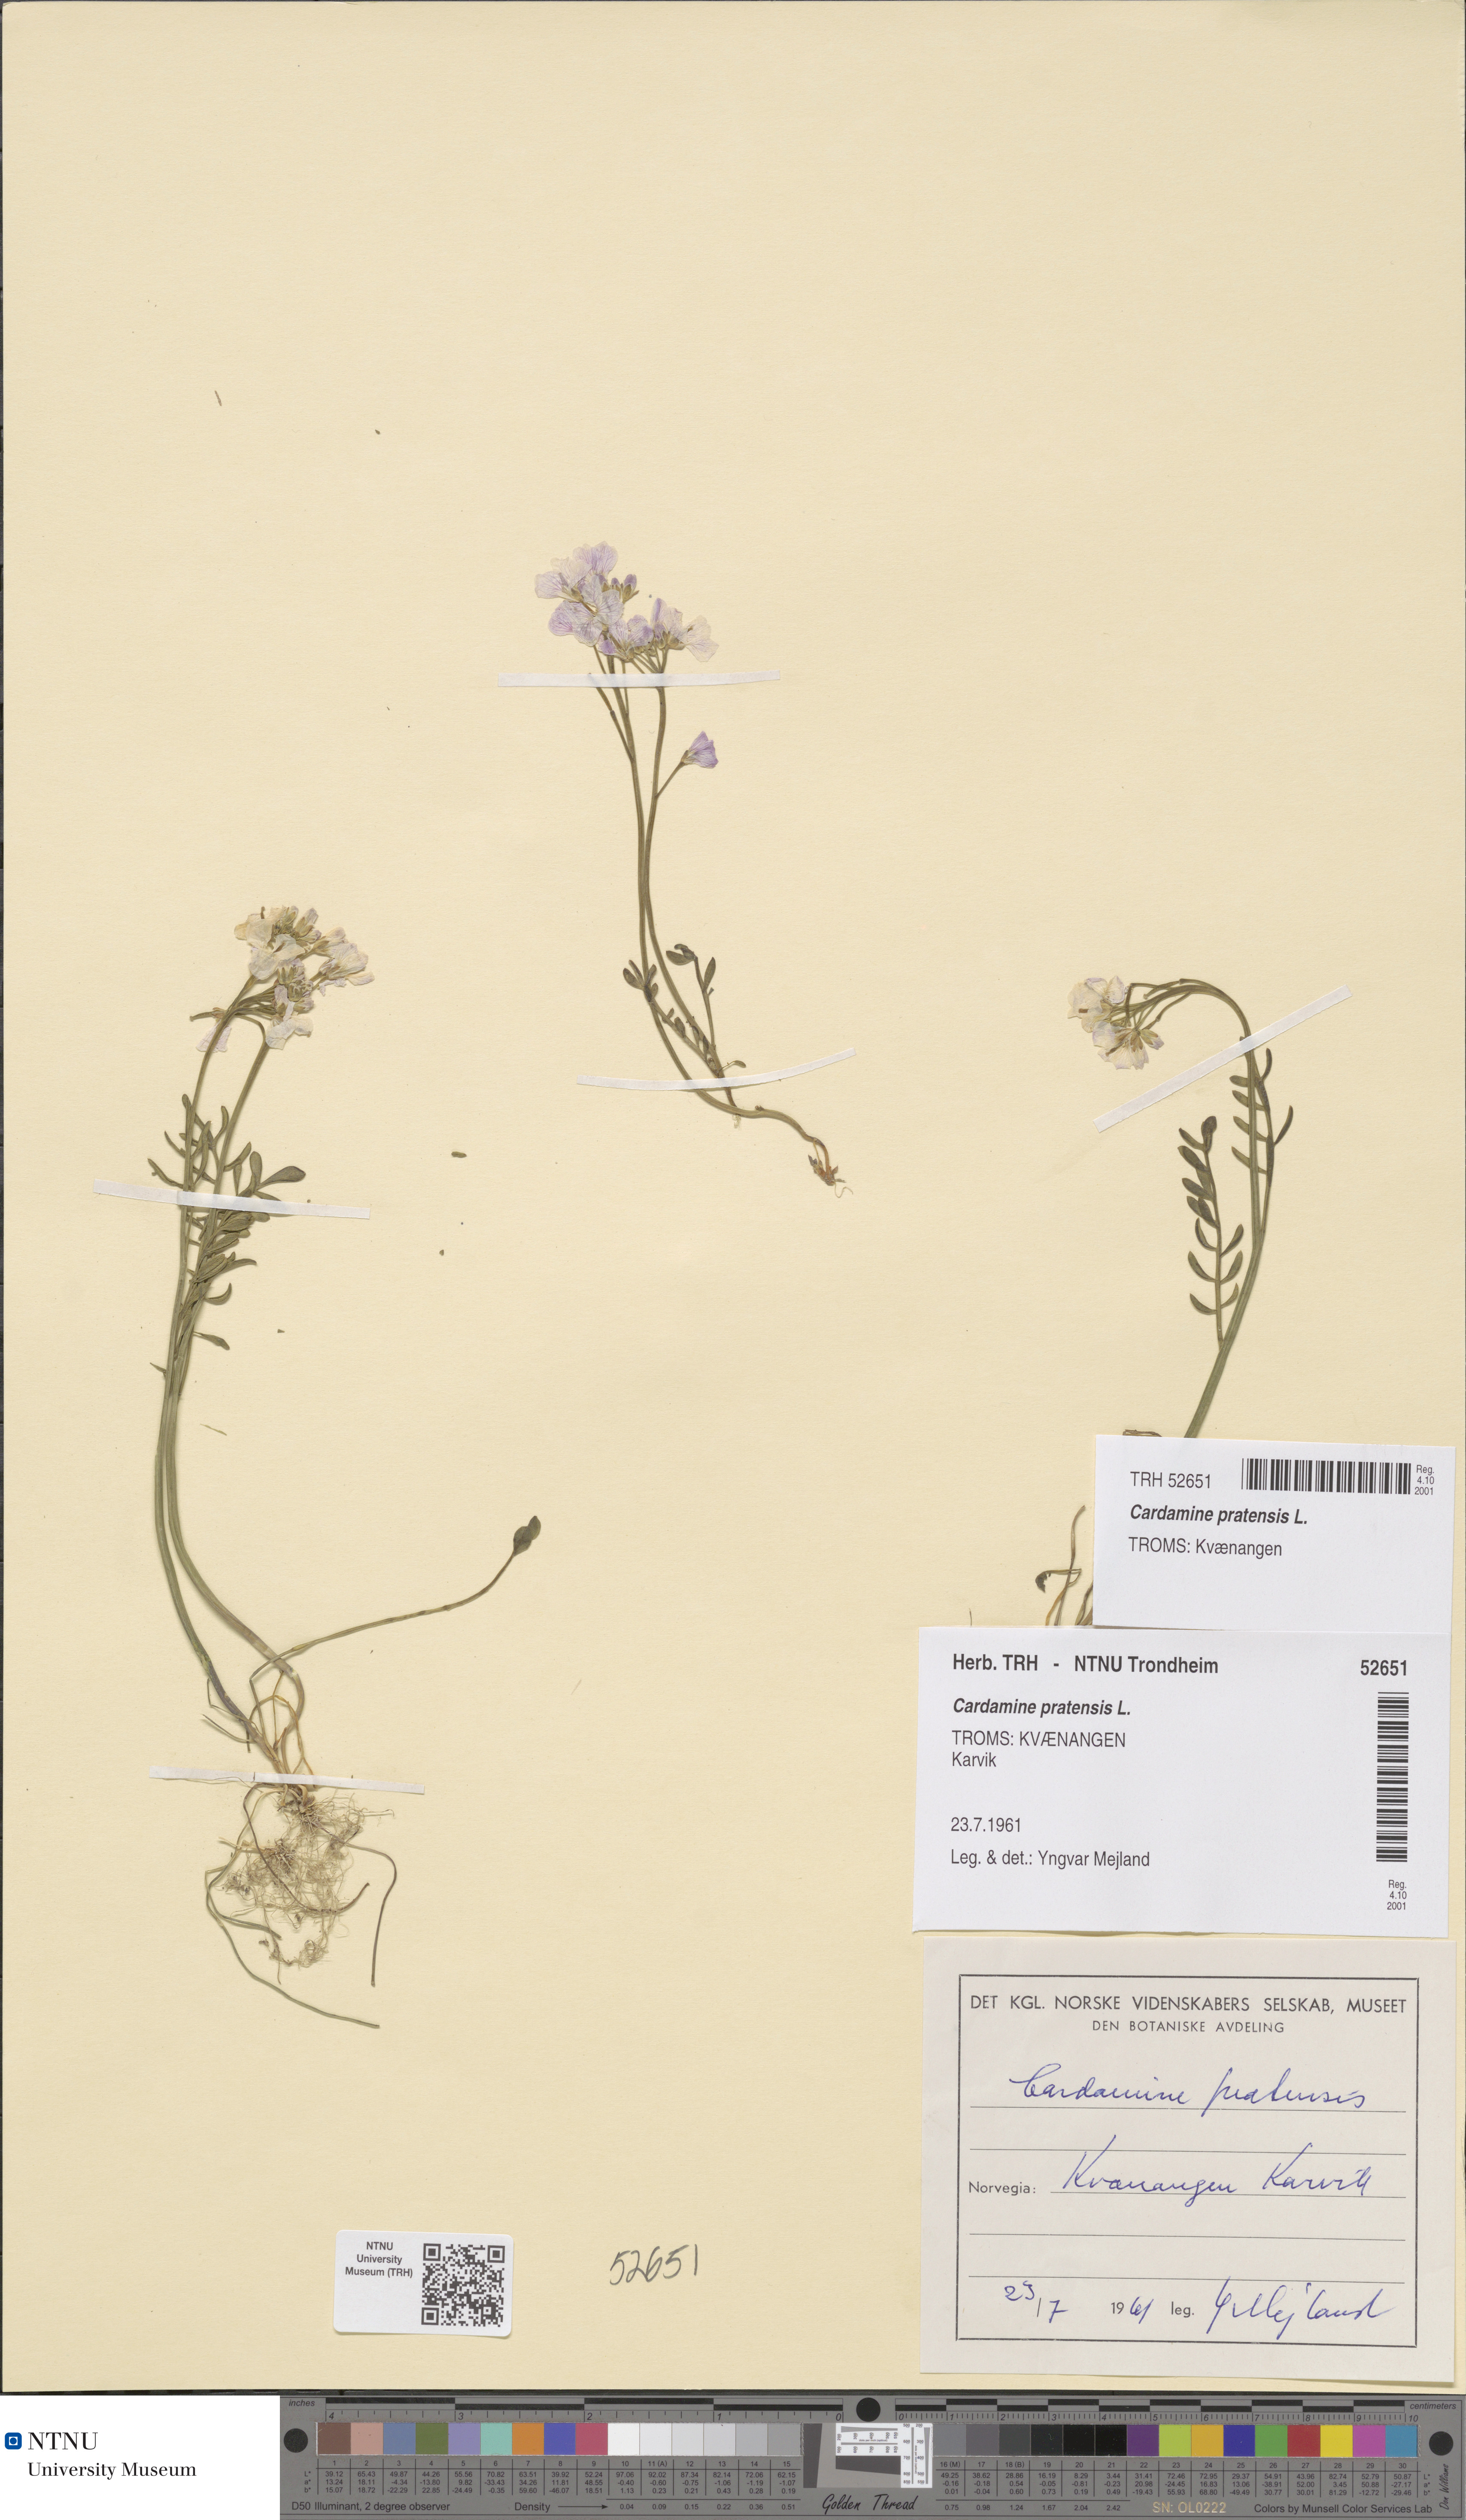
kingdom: Plantae
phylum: Tracheophyta
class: Magnoliopsida
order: Brassicales
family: Brassicaceae
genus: Cardamine
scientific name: Cardamine nymanii
